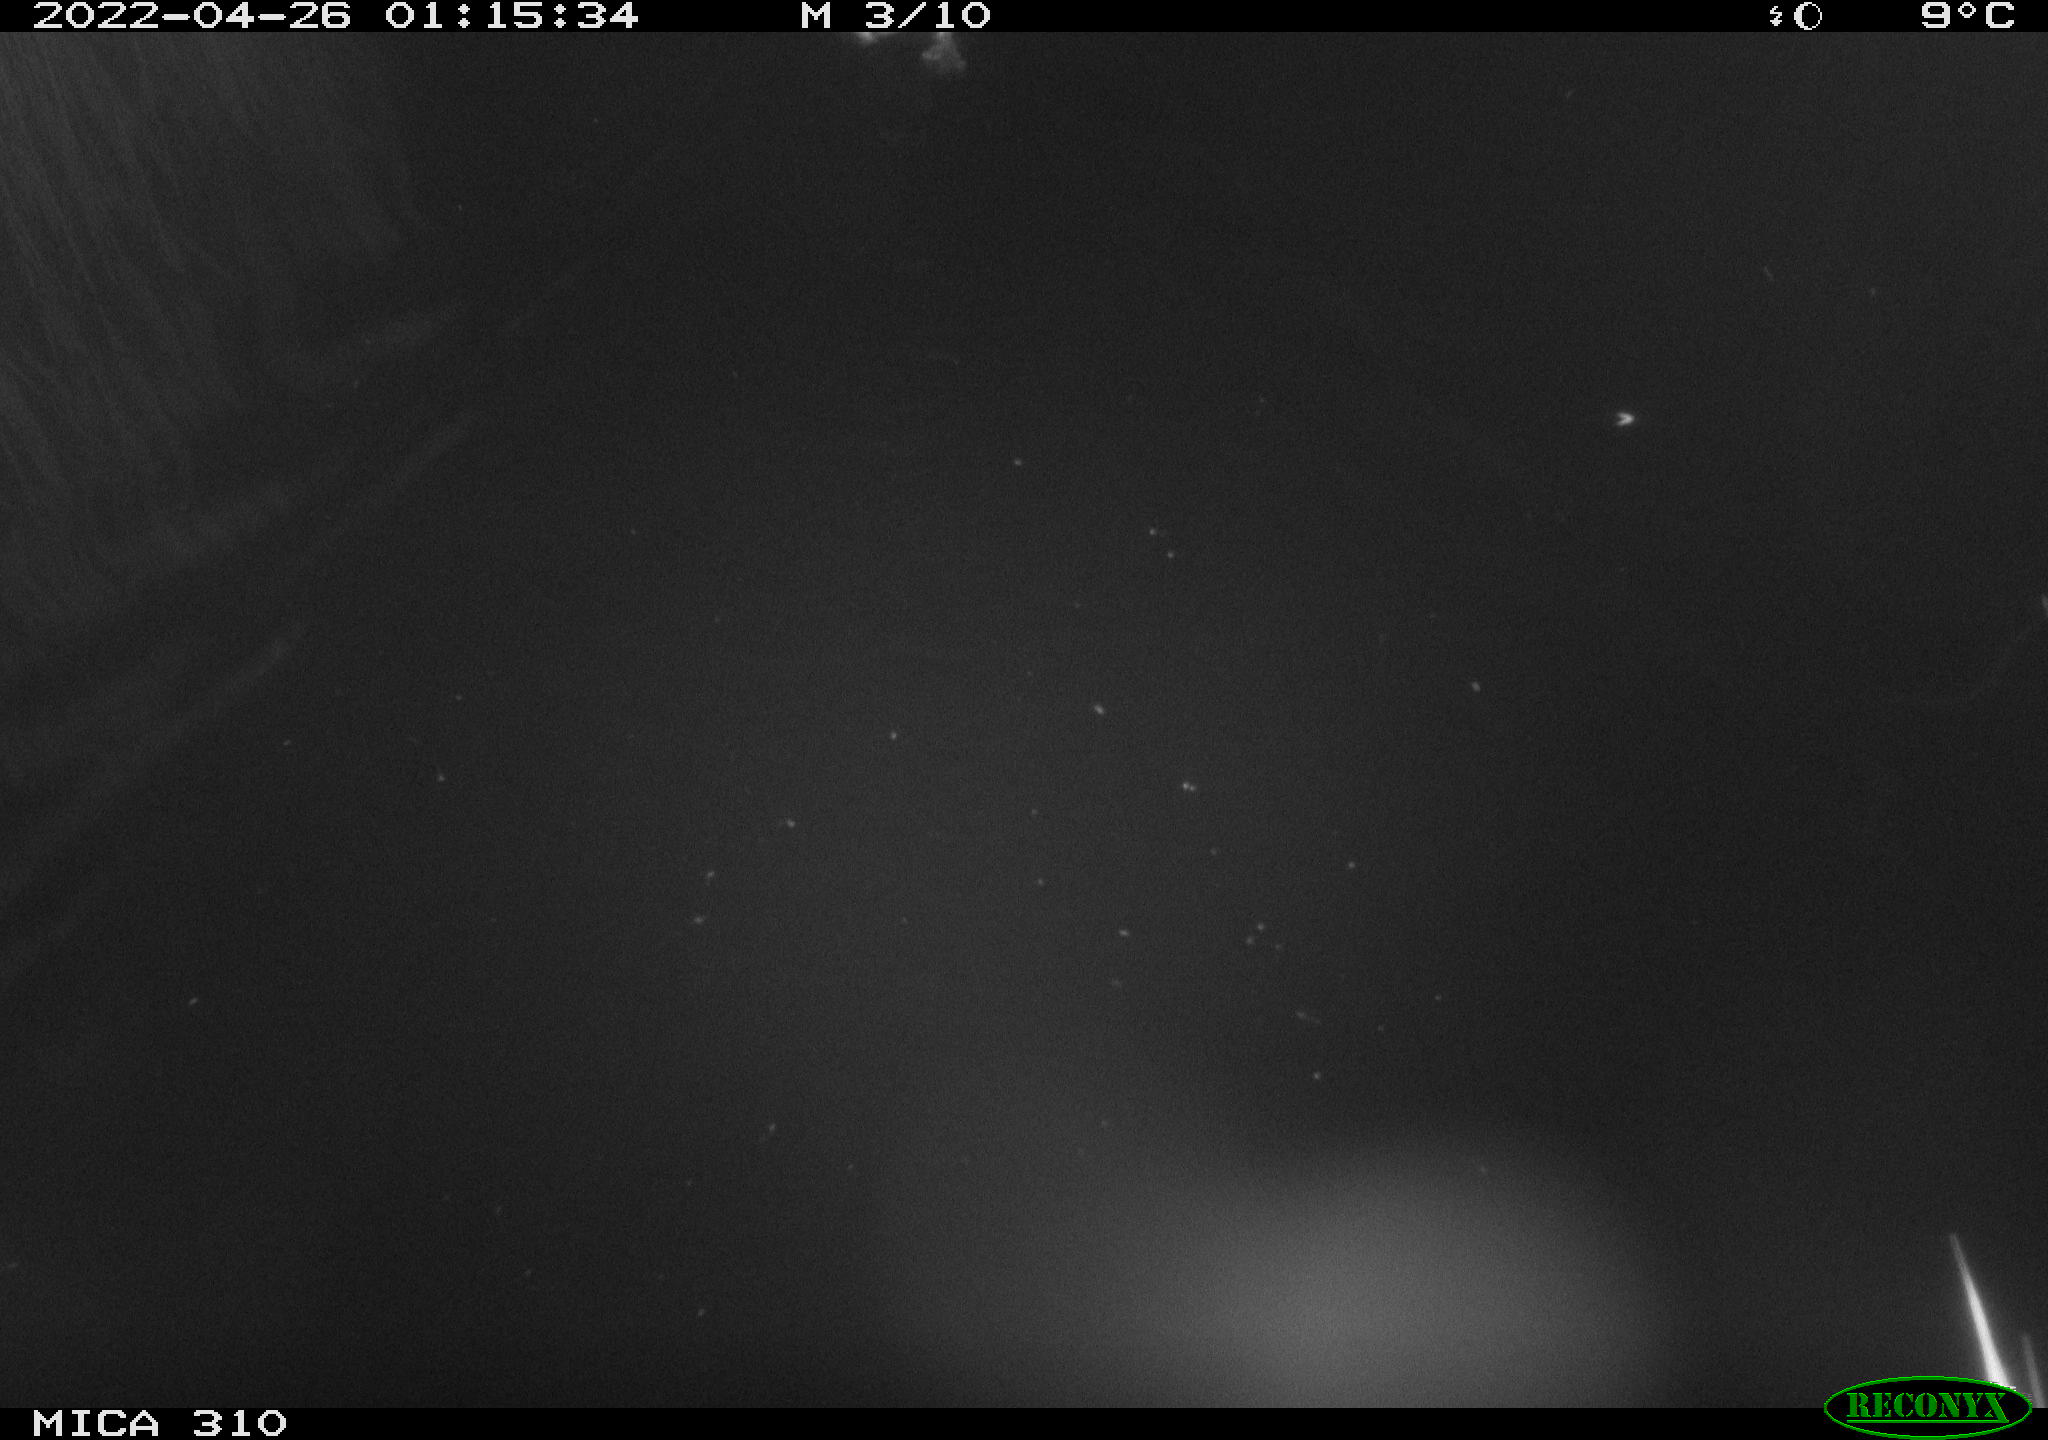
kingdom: Animalia
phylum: Chordata
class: Aves
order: Anseriformes
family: Anatidae
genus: Anas
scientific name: Anas platyrhynchos
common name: Mallard
